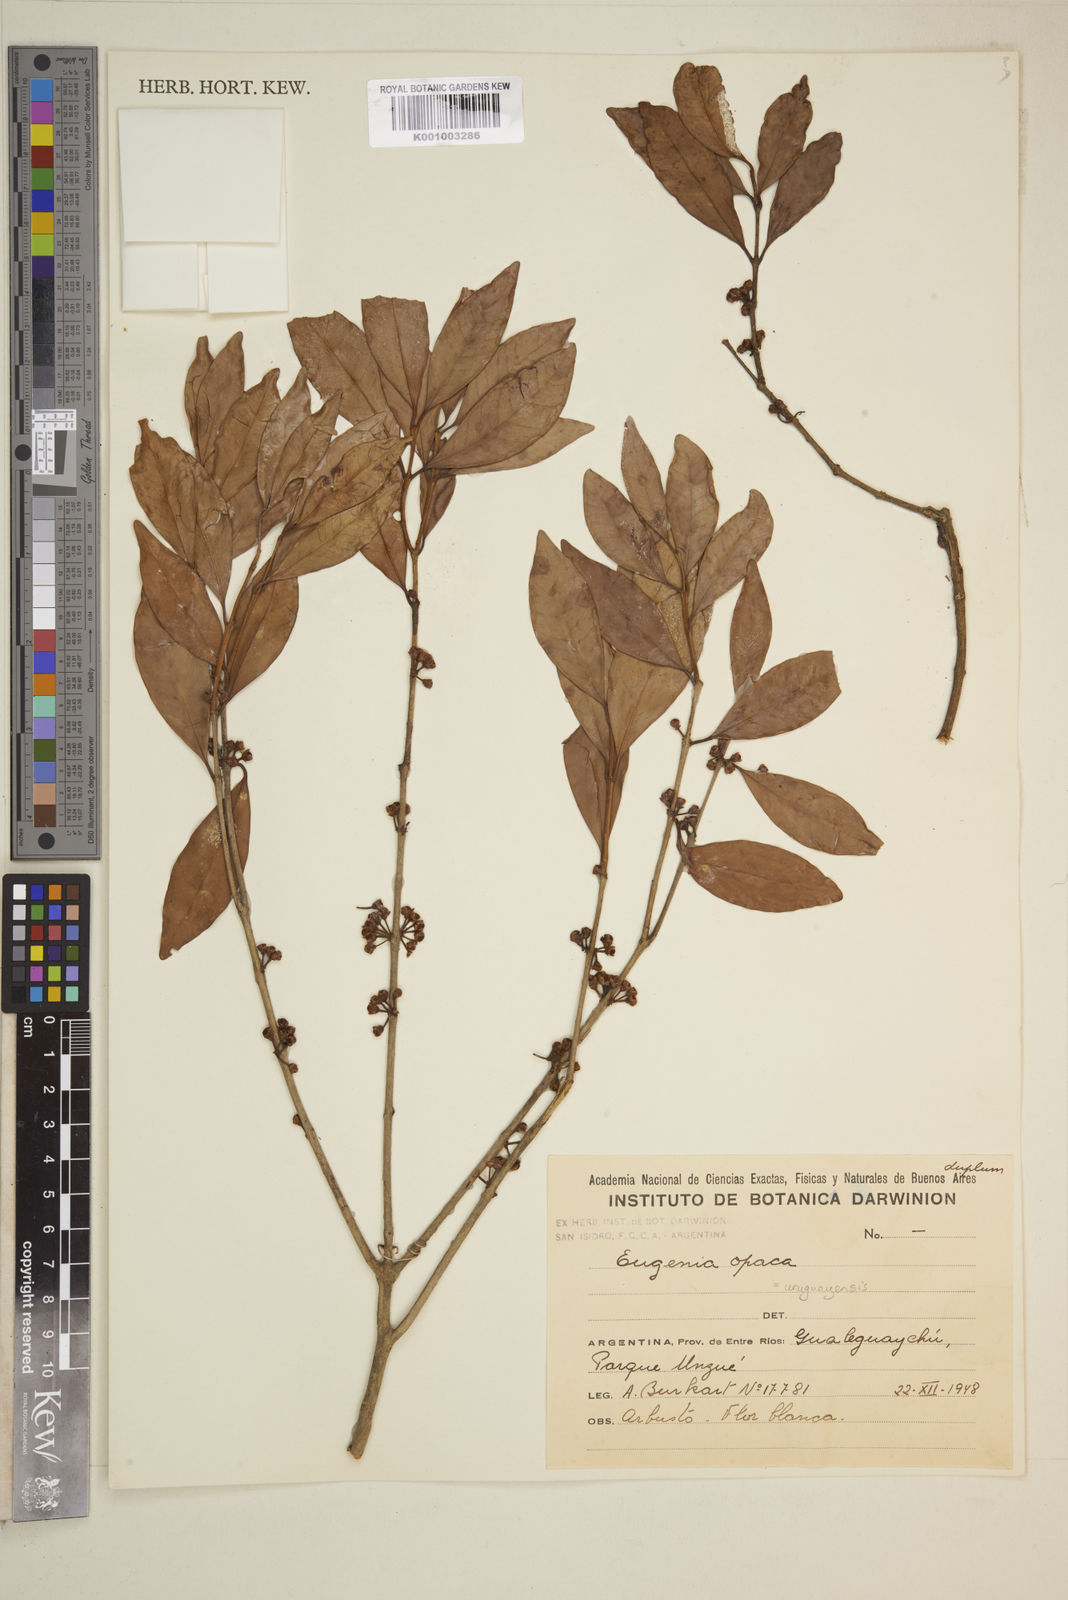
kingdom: Plantae
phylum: Tracheophyta
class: Magnoliopsida
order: Myrtales
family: Myrtaceae
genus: Eugenia
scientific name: Eugenia
